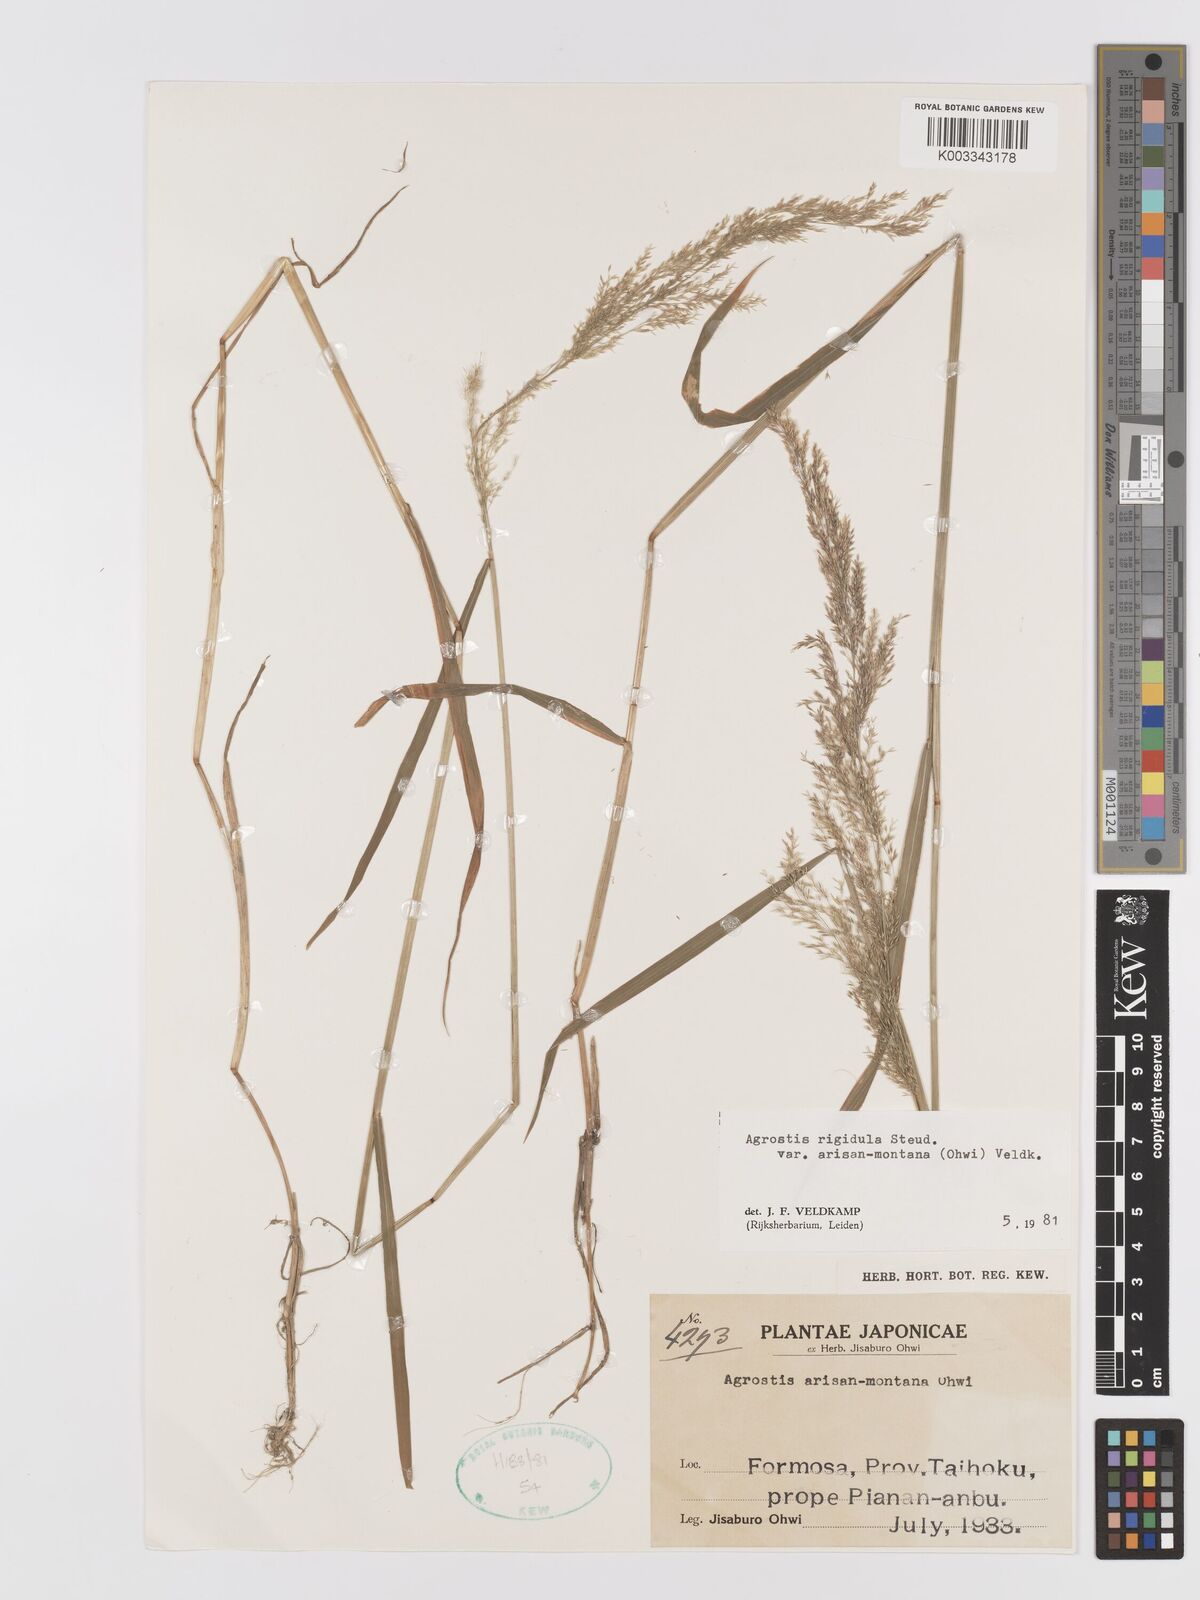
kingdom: Plantae
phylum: Tracheophyta
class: Liliopsida
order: Poales
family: Poaceae
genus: Agrostis
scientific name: Agrostis infirma
